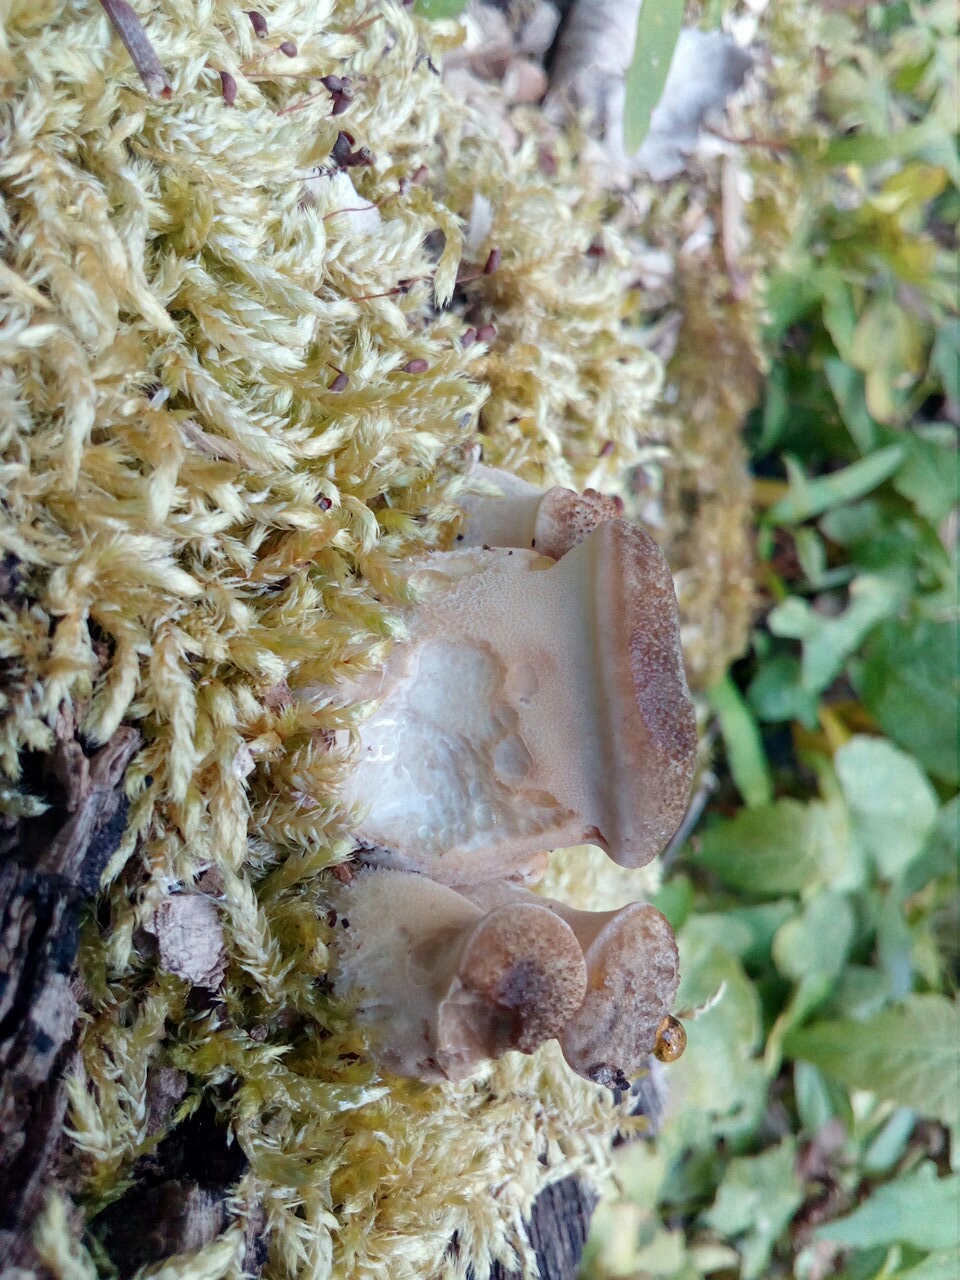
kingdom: Fungi
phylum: Basidiomycota
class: Agaricomycetes
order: Polyporales
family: Polyporaceae
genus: Cerioporus
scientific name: Cerioporus squamosus
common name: skællet stilkporesvamp
